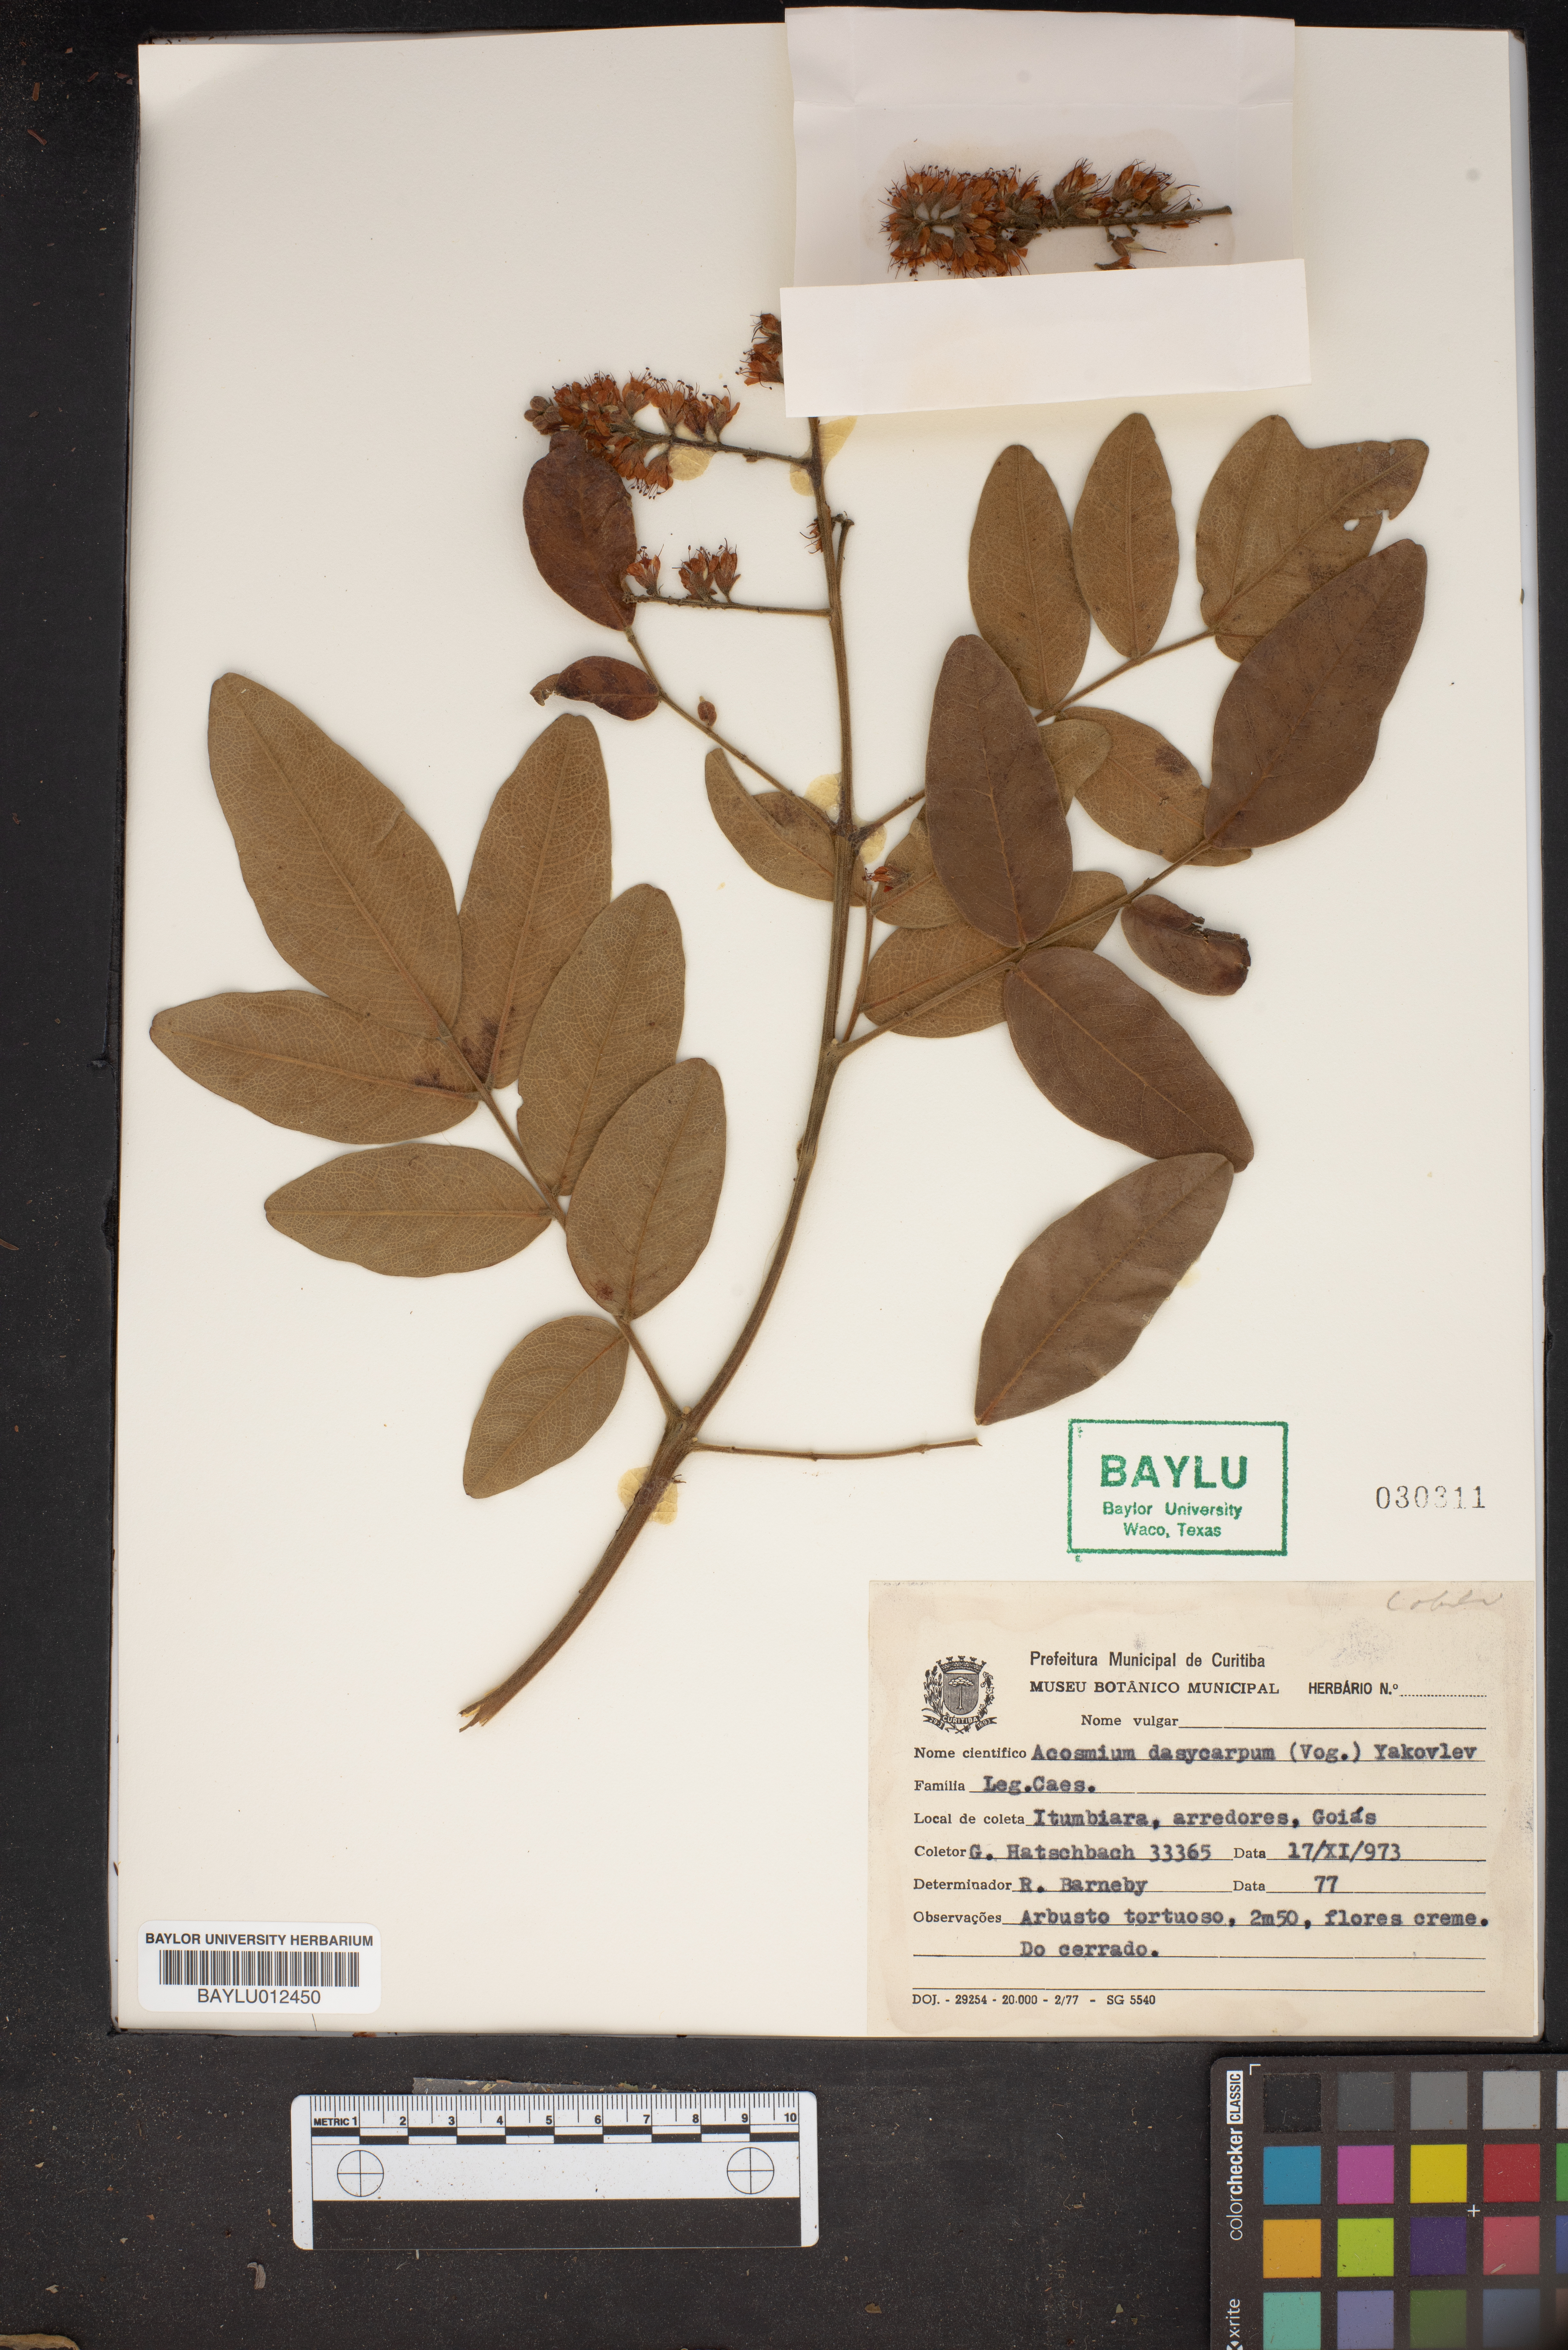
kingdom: Plantae
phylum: Tracheophyta
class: Magnoliopsida
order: Fabales
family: Fabaceae
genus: Leptolobium
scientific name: Leptolobium dasycarpum
